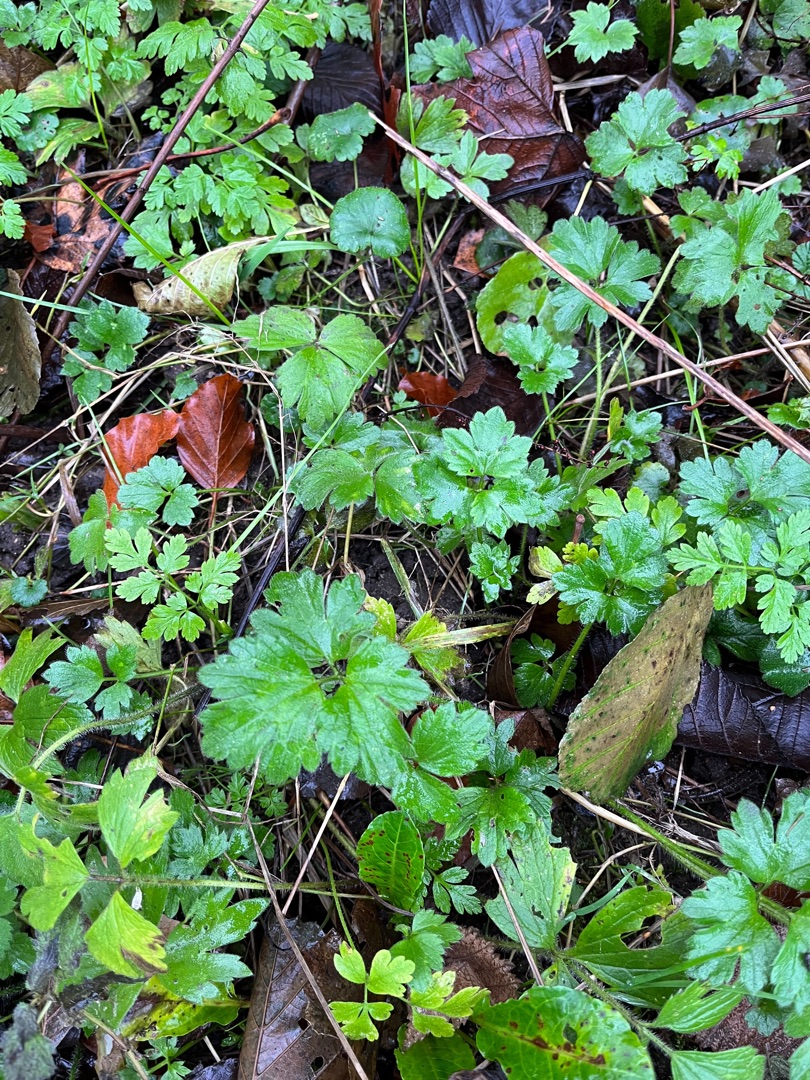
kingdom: Plantae
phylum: Tracheophyta
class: Magnoliopsida
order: Ranunculales
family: Ranunculaceae
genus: Ranunculus
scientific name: Ranunculus repens
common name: Lav ranunkel
